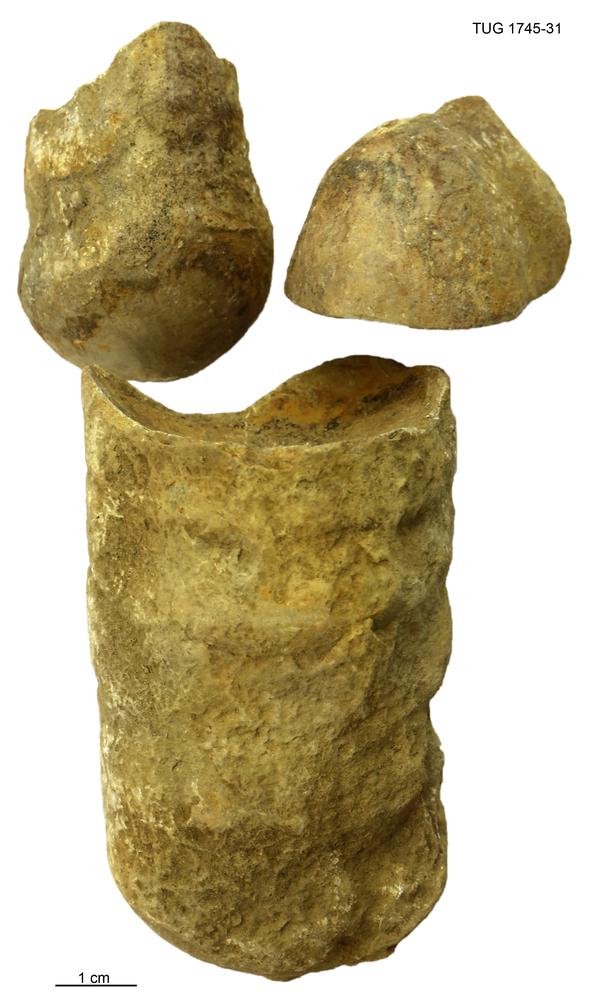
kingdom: Animalia
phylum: Mollusca
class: Cephalopoda
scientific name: Cephalopoda
